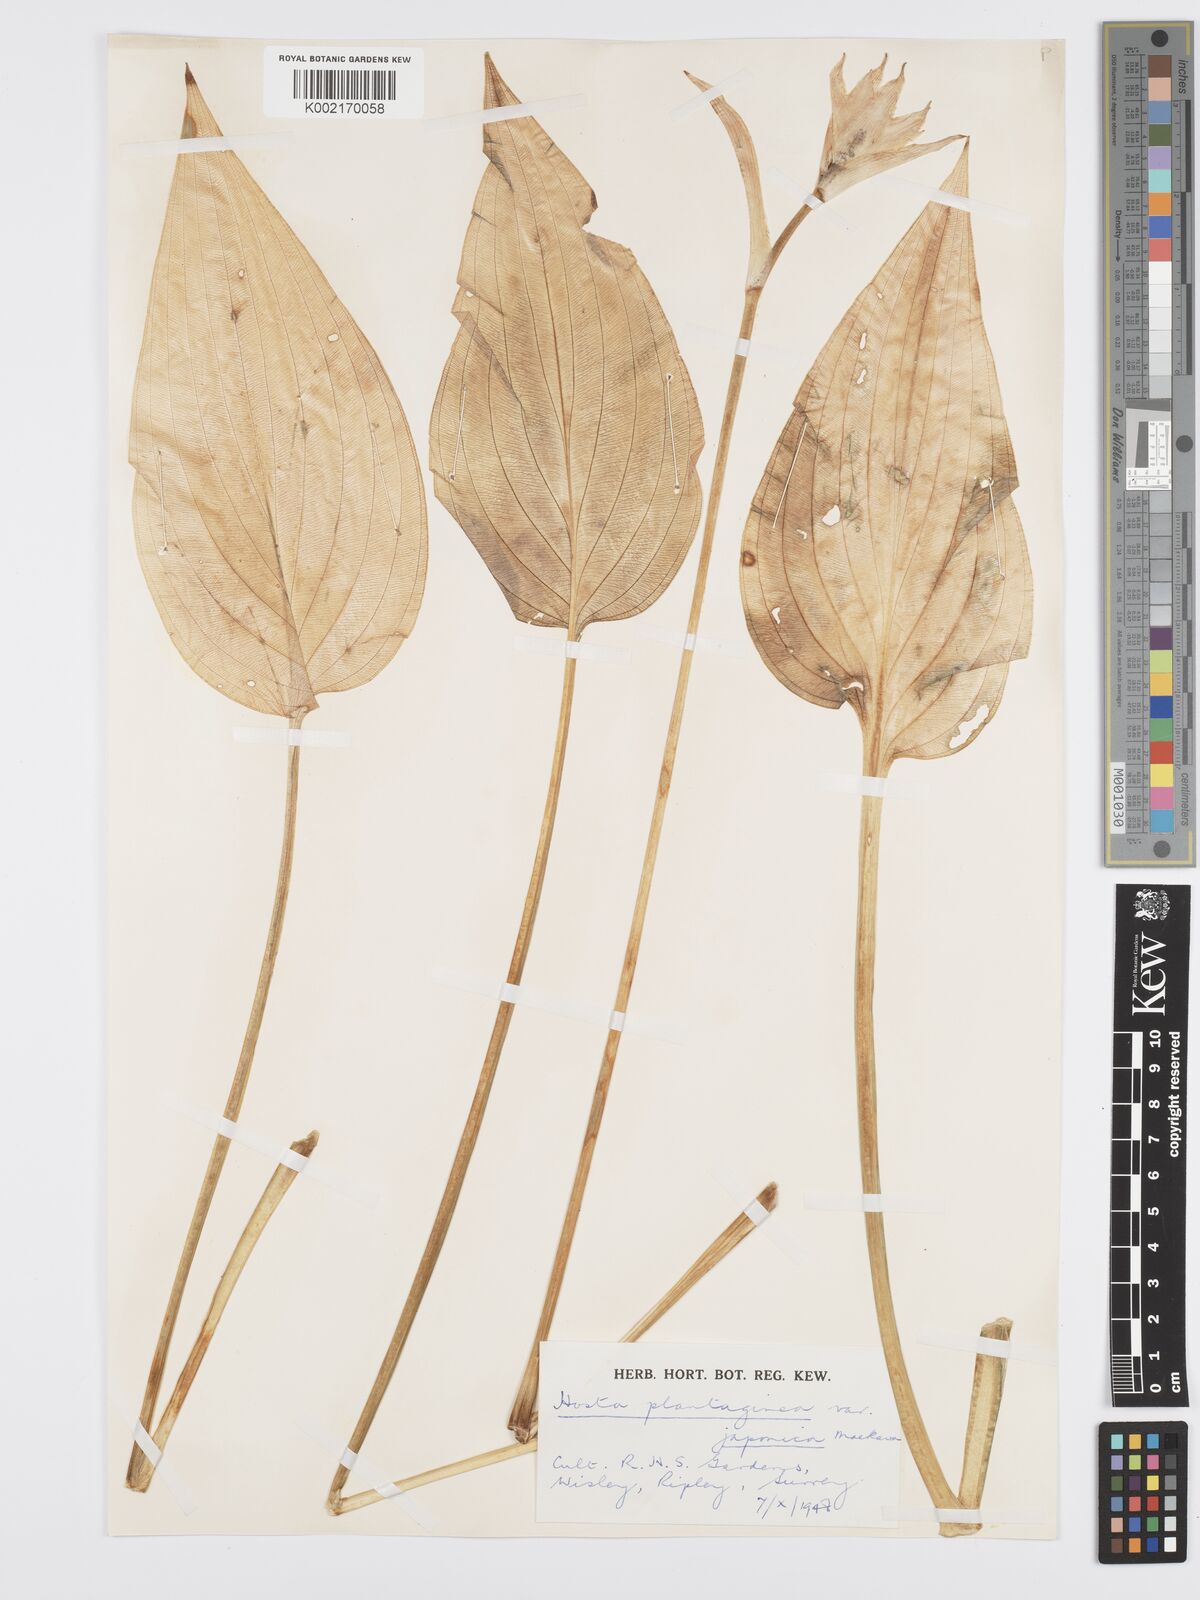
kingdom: Plantae
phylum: Tracheophyta
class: Liliopsida
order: Asparagales
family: Asparagaceae
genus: Hosta
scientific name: Hosta plantaginea
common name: August-lily
